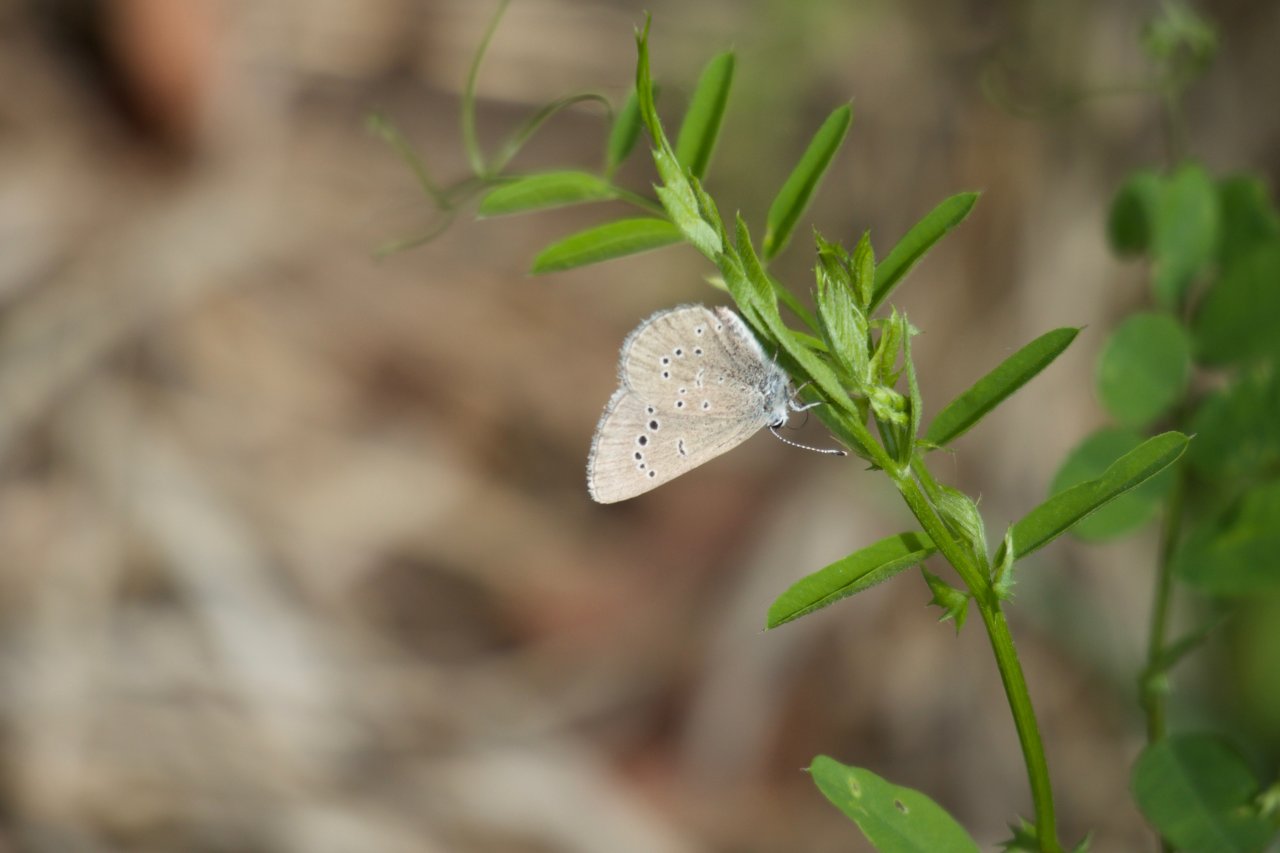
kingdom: Animalia
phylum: Arthropoda
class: Insecta
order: Lepidoptera
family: Lycaenidae
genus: Glaucopsyche
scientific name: Glaucopsyche lygdamus
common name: Silvery Blue
